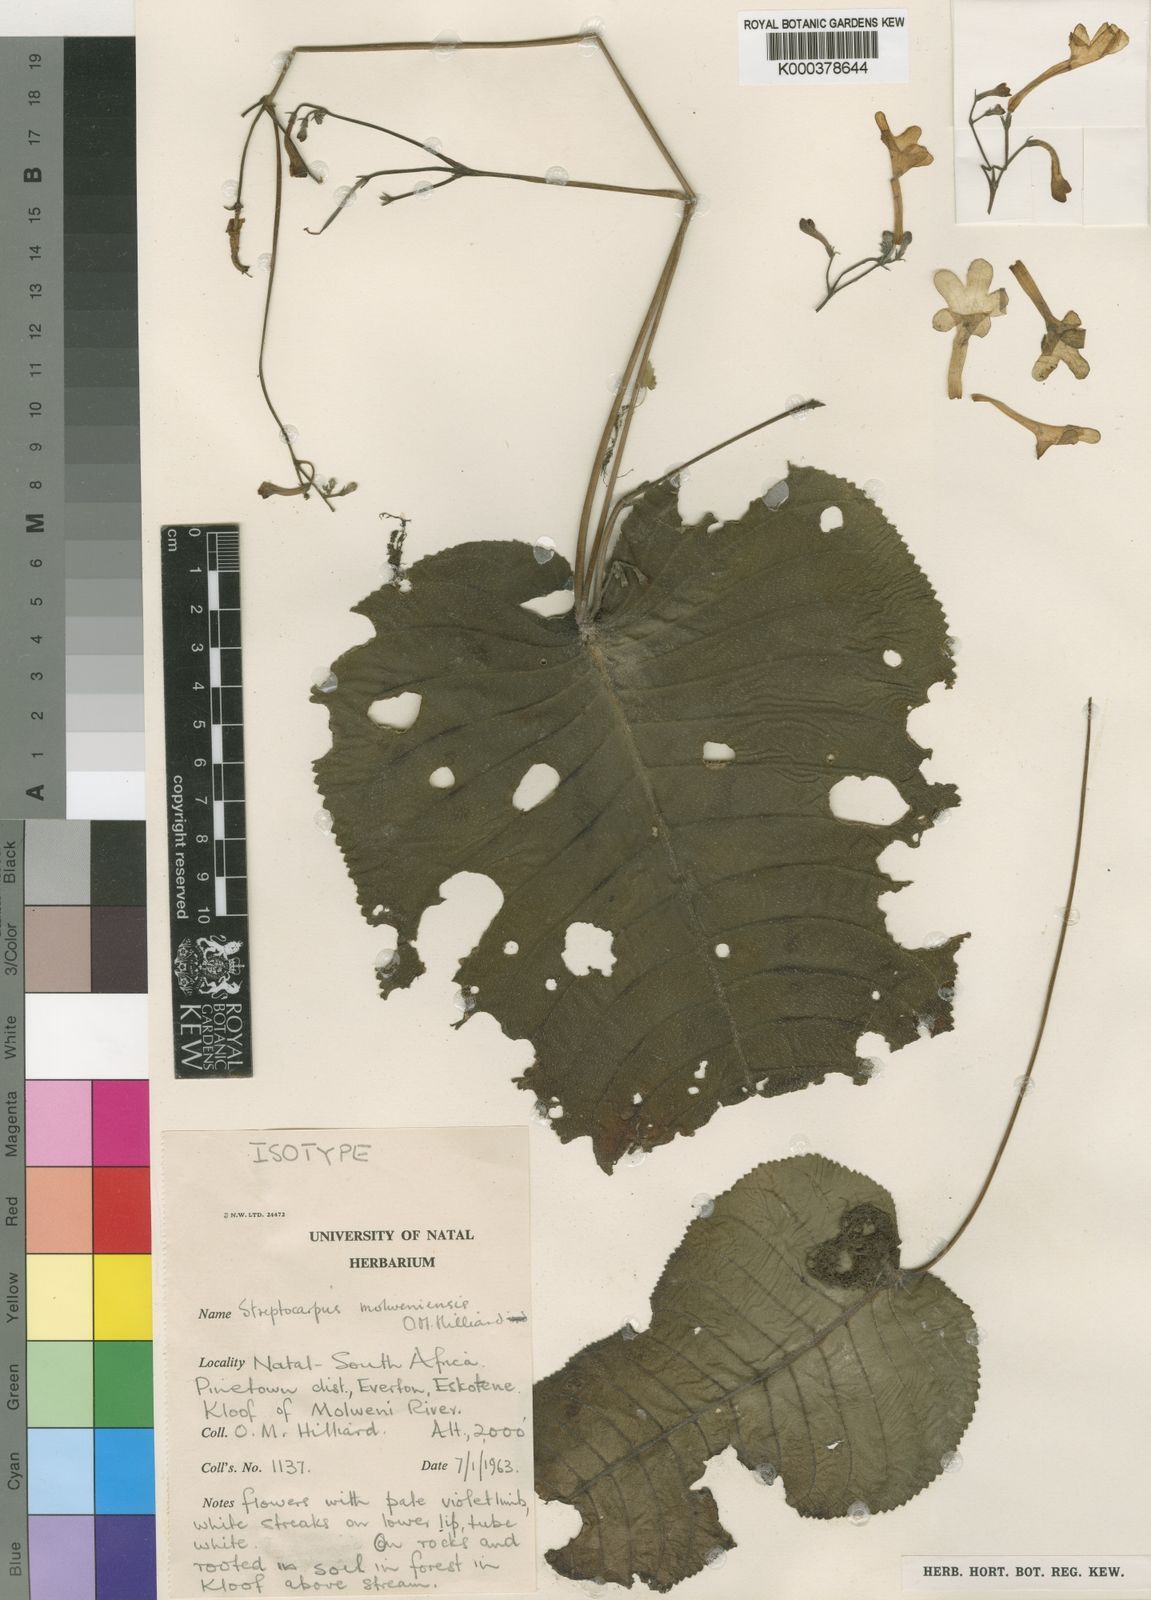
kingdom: Plantae
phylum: Tracheophyta
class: Magnoliopsida
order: Lamiales
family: Gesneriaceae
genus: Streptocarpus
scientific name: Streptocarpus molweniensis
